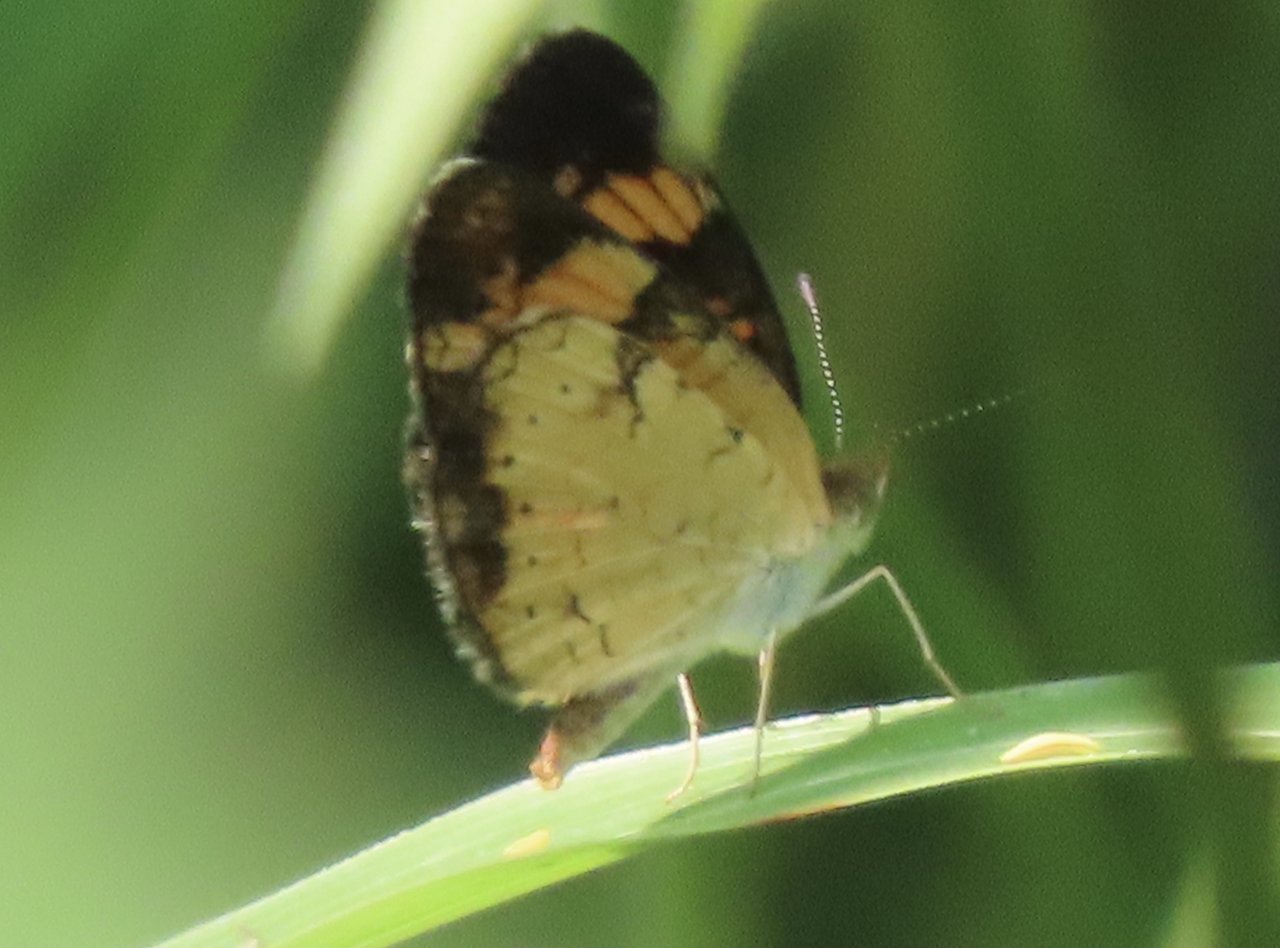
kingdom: Animalia
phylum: Arthropoda
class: Insecta
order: Lepidoptera
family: Nymphalidae
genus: Phyciodes
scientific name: Phyciodes tharos
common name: Pearl Crescent
